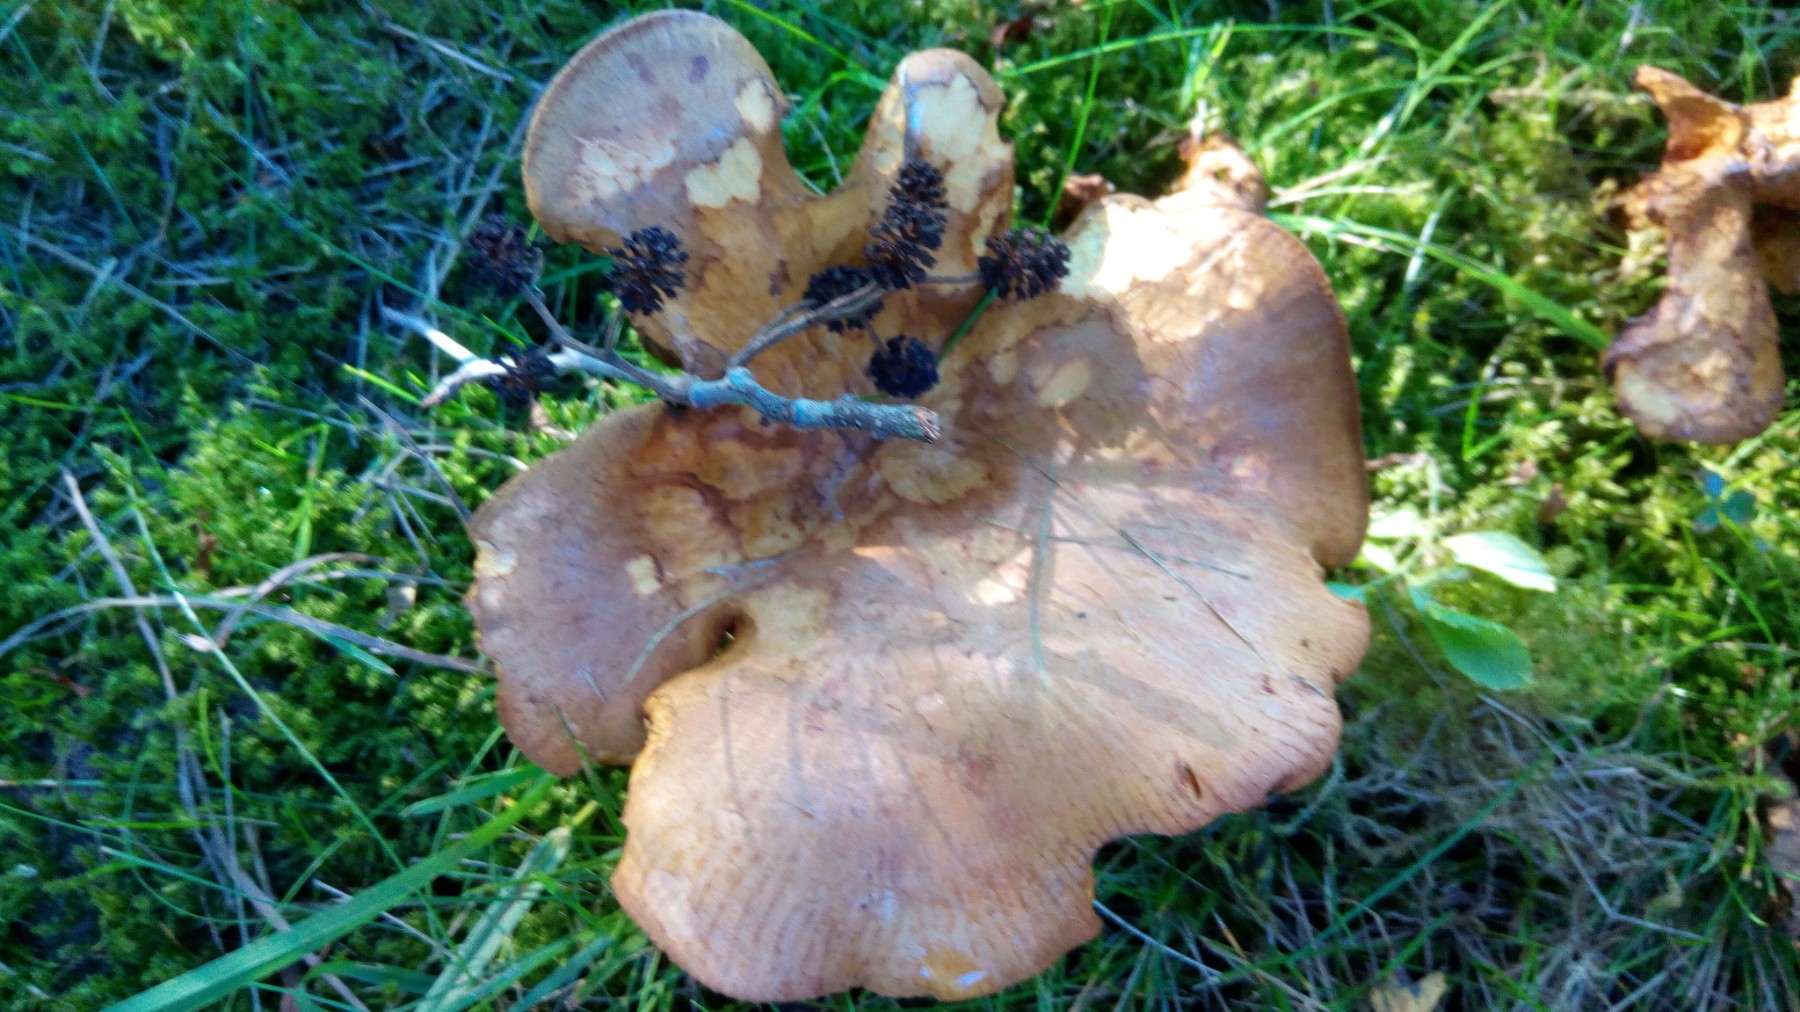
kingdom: Fungi
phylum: Basidiomycota
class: Agaricomycetes
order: Boletales
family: Paxillaceae
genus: Paxillus
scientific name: Paxillus rubicundulus
